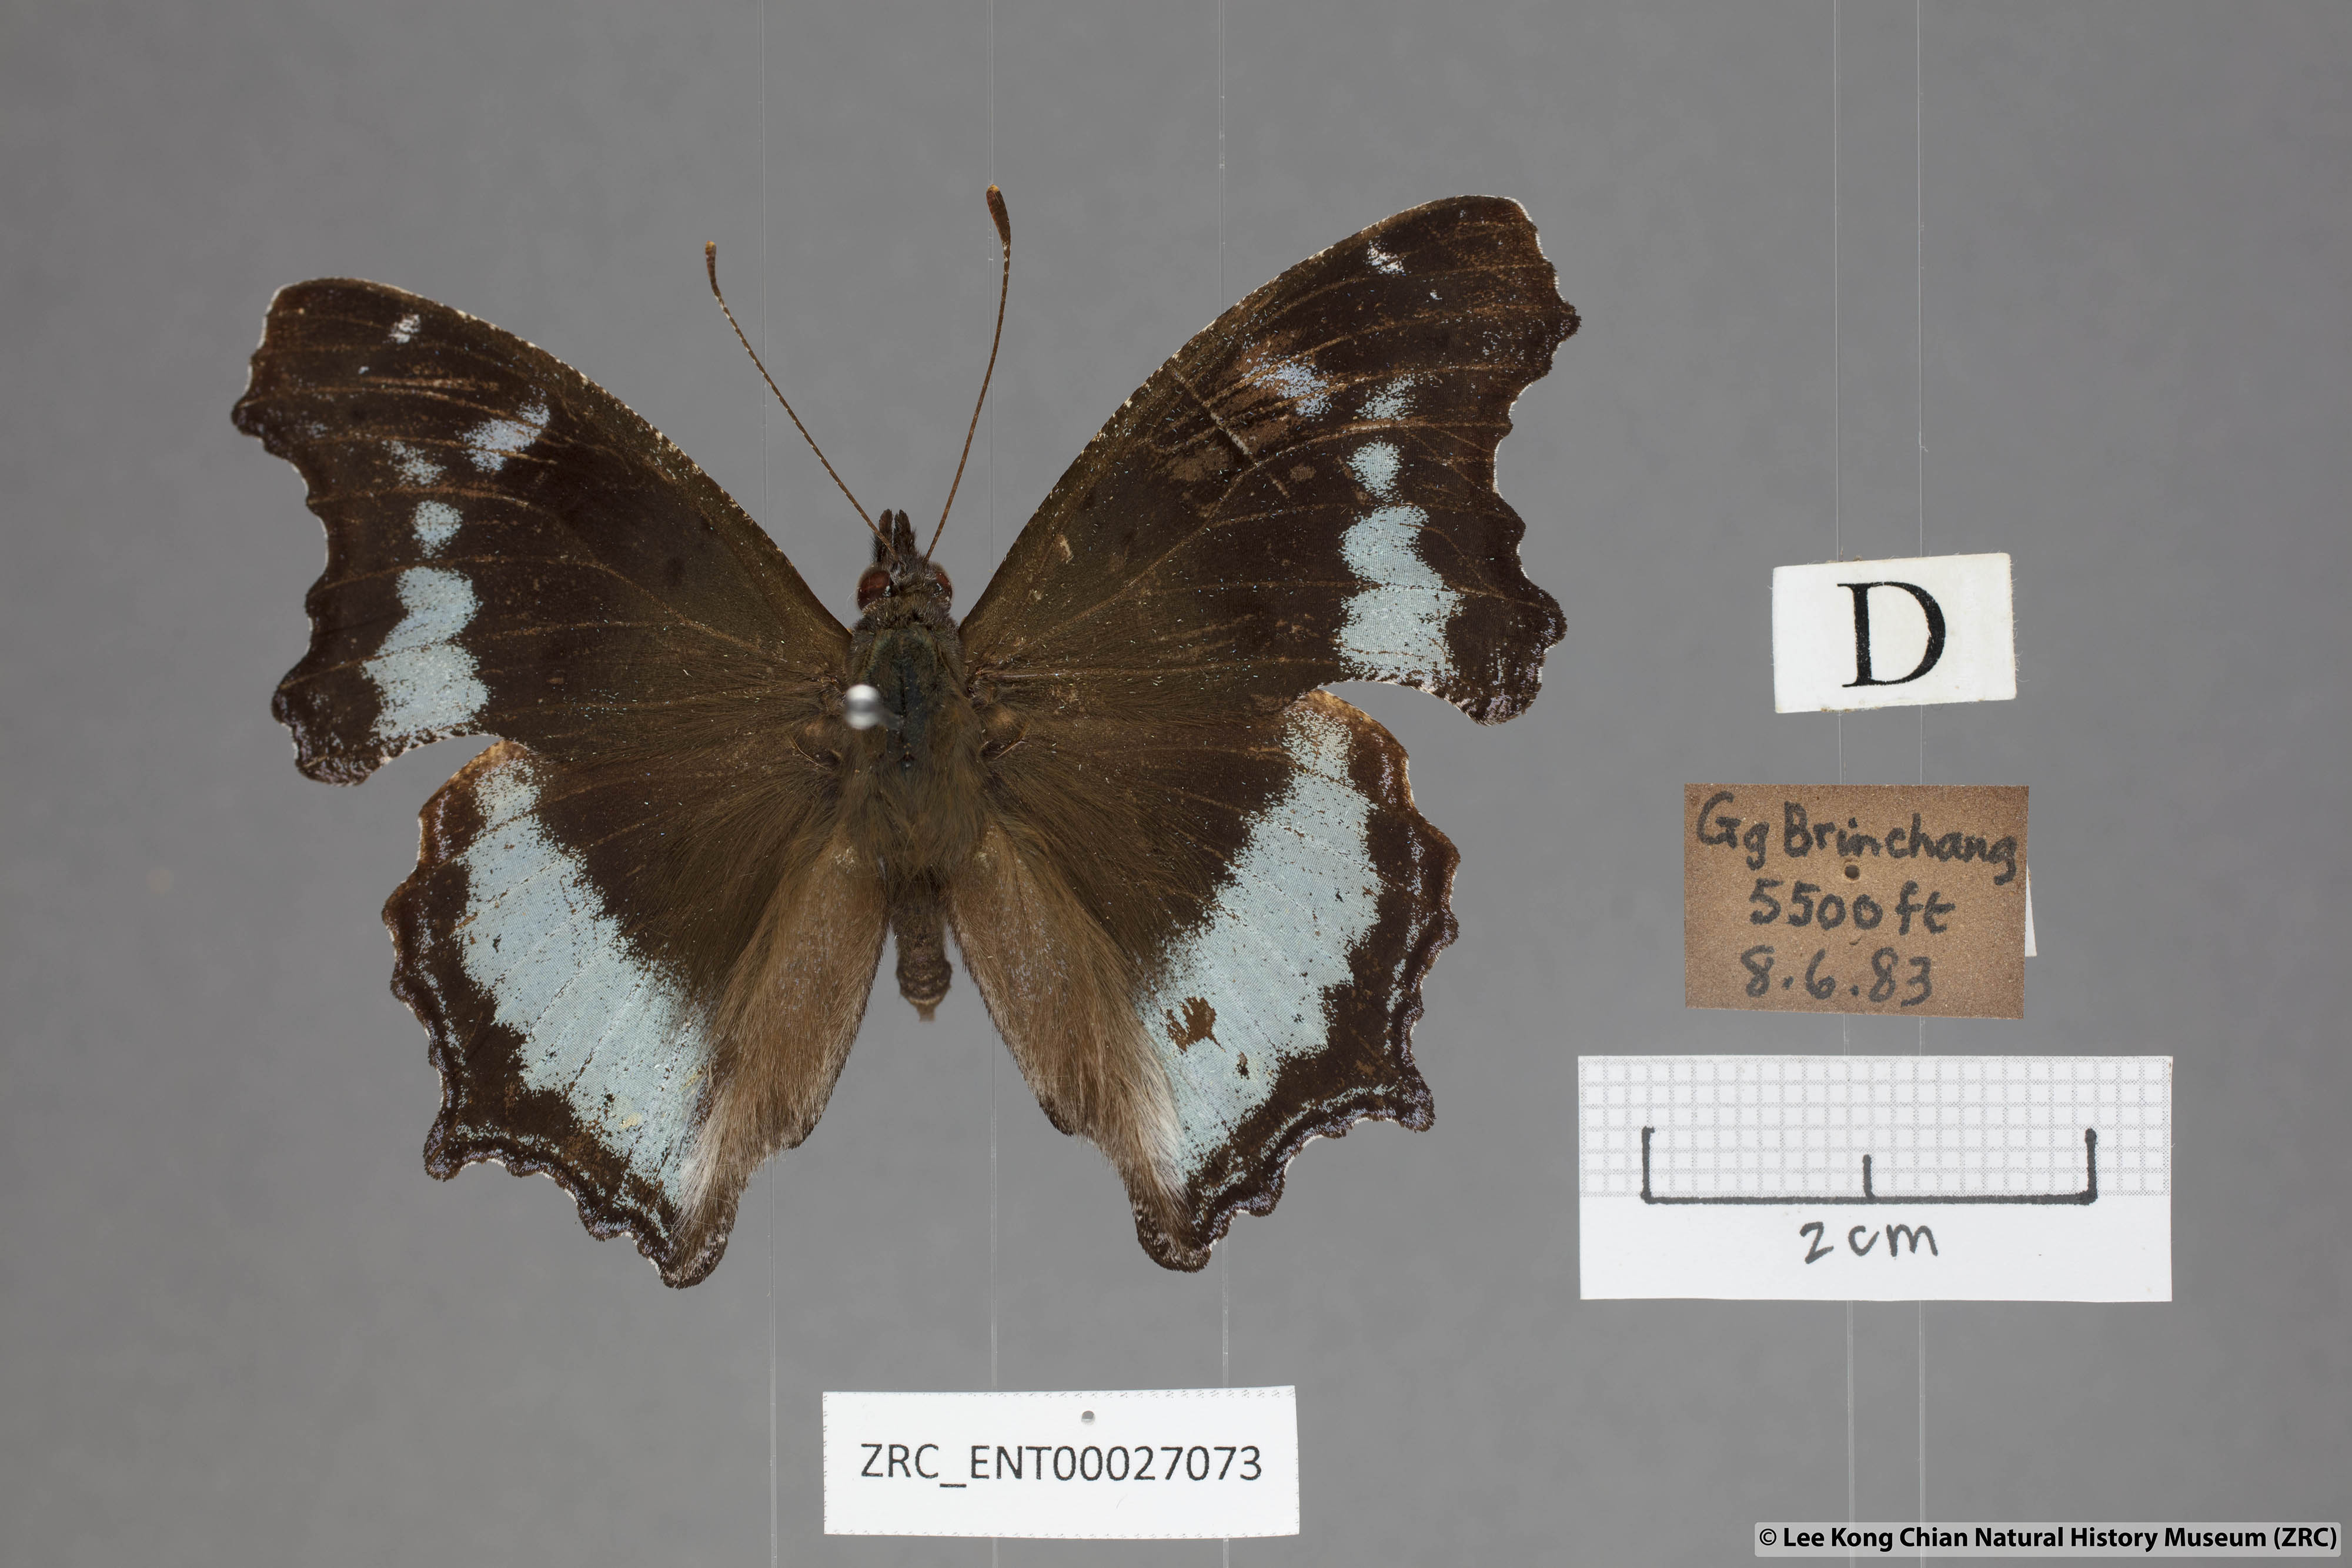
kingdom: Animalia
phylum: Arthropoda
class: Insecta
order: Lepidoptera
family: Nymphalidae
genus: Vanessa
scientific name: Vanessa Kaniska canace
